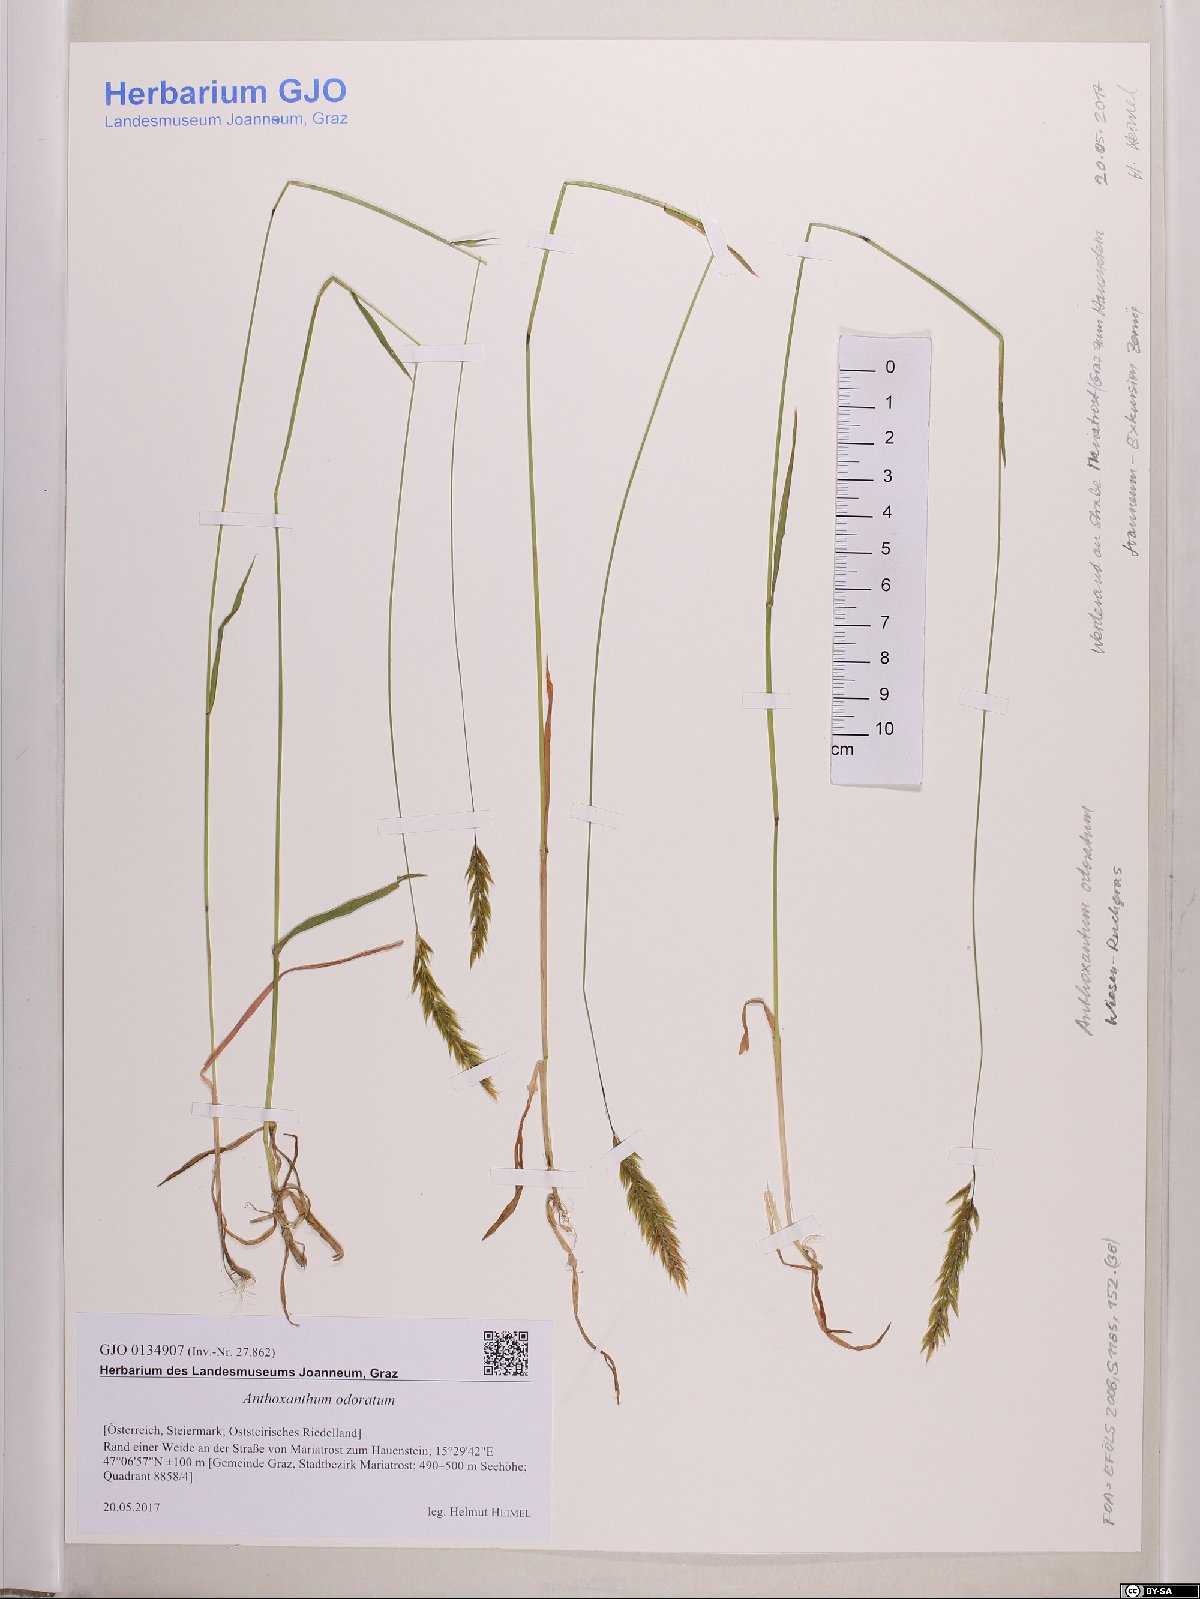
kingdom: Plantae
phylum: Tracheophyta
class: Liliopsida
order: Poales
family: Poaceae
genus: Anthoxanthum
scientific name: Anthoxanthum odoratum
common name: Sweet vernalgrass
